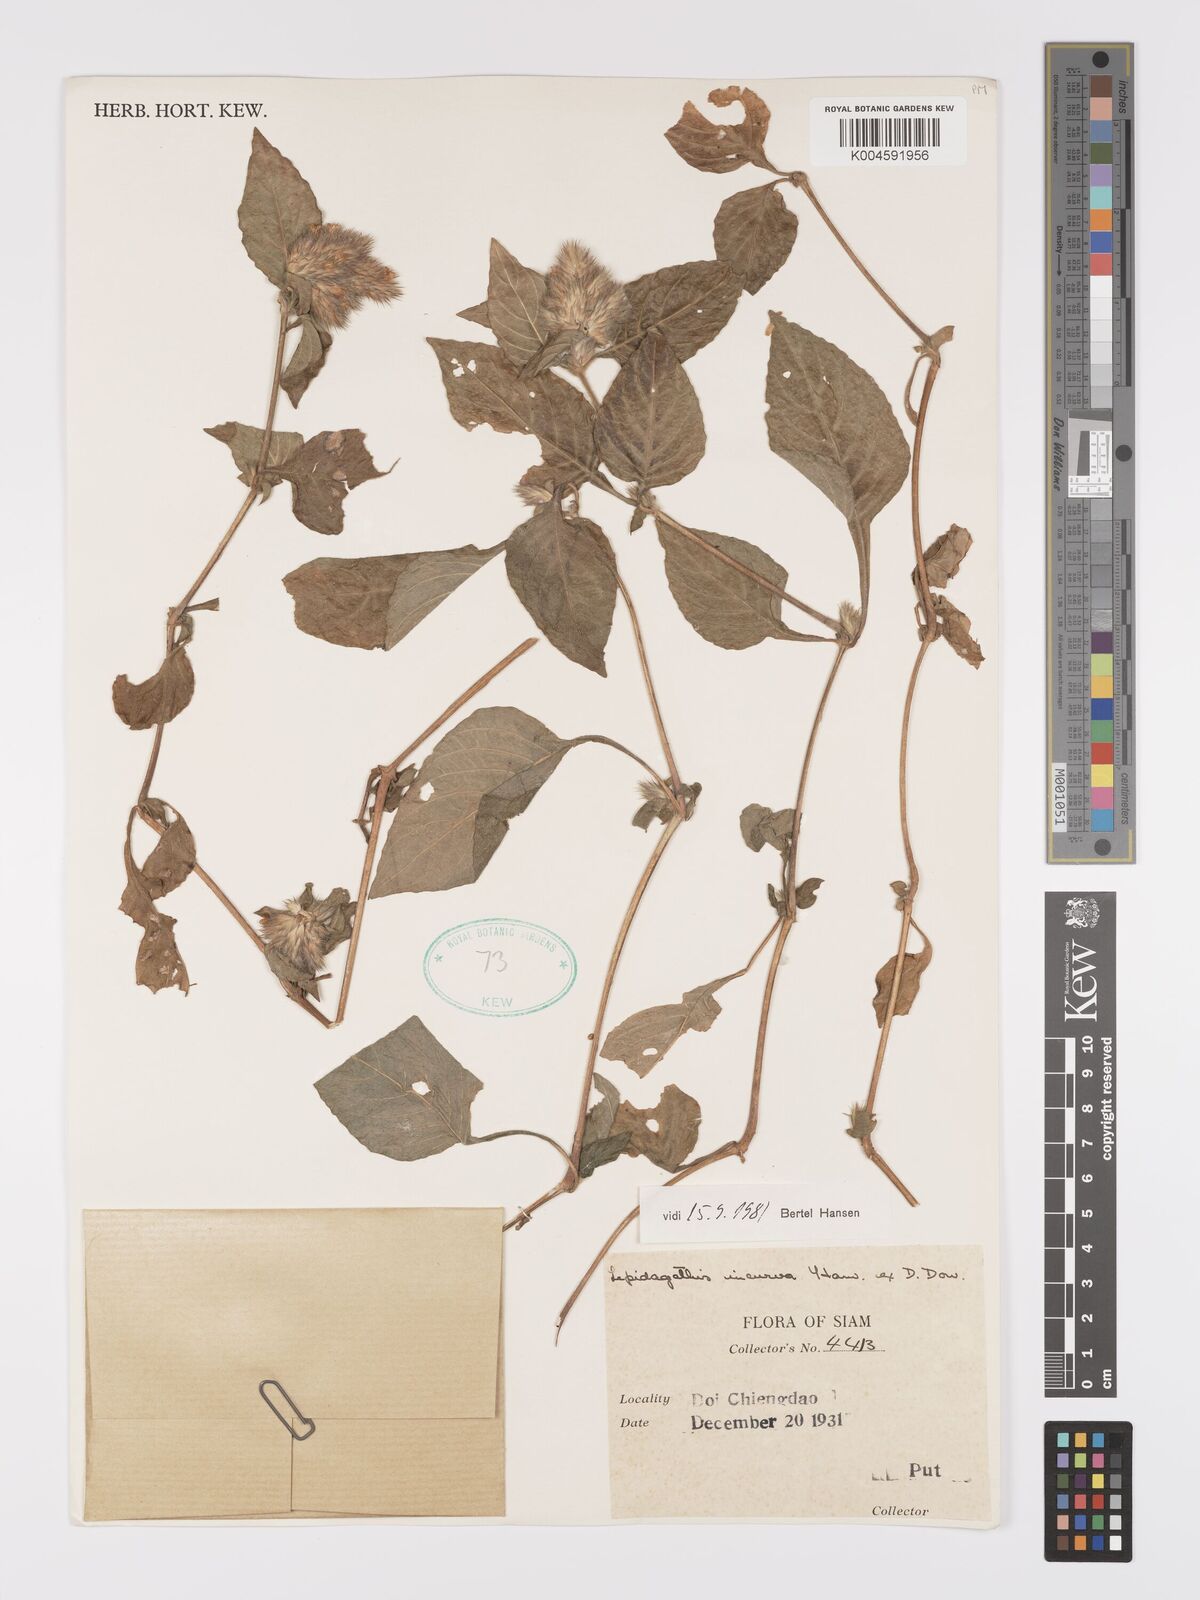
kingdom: Plantae
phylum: Tracheophyta
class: Magnoliopsida
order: Lamiales
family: Acanthaceae
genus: Lepidagathis
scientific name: Lepidagathis incurva
